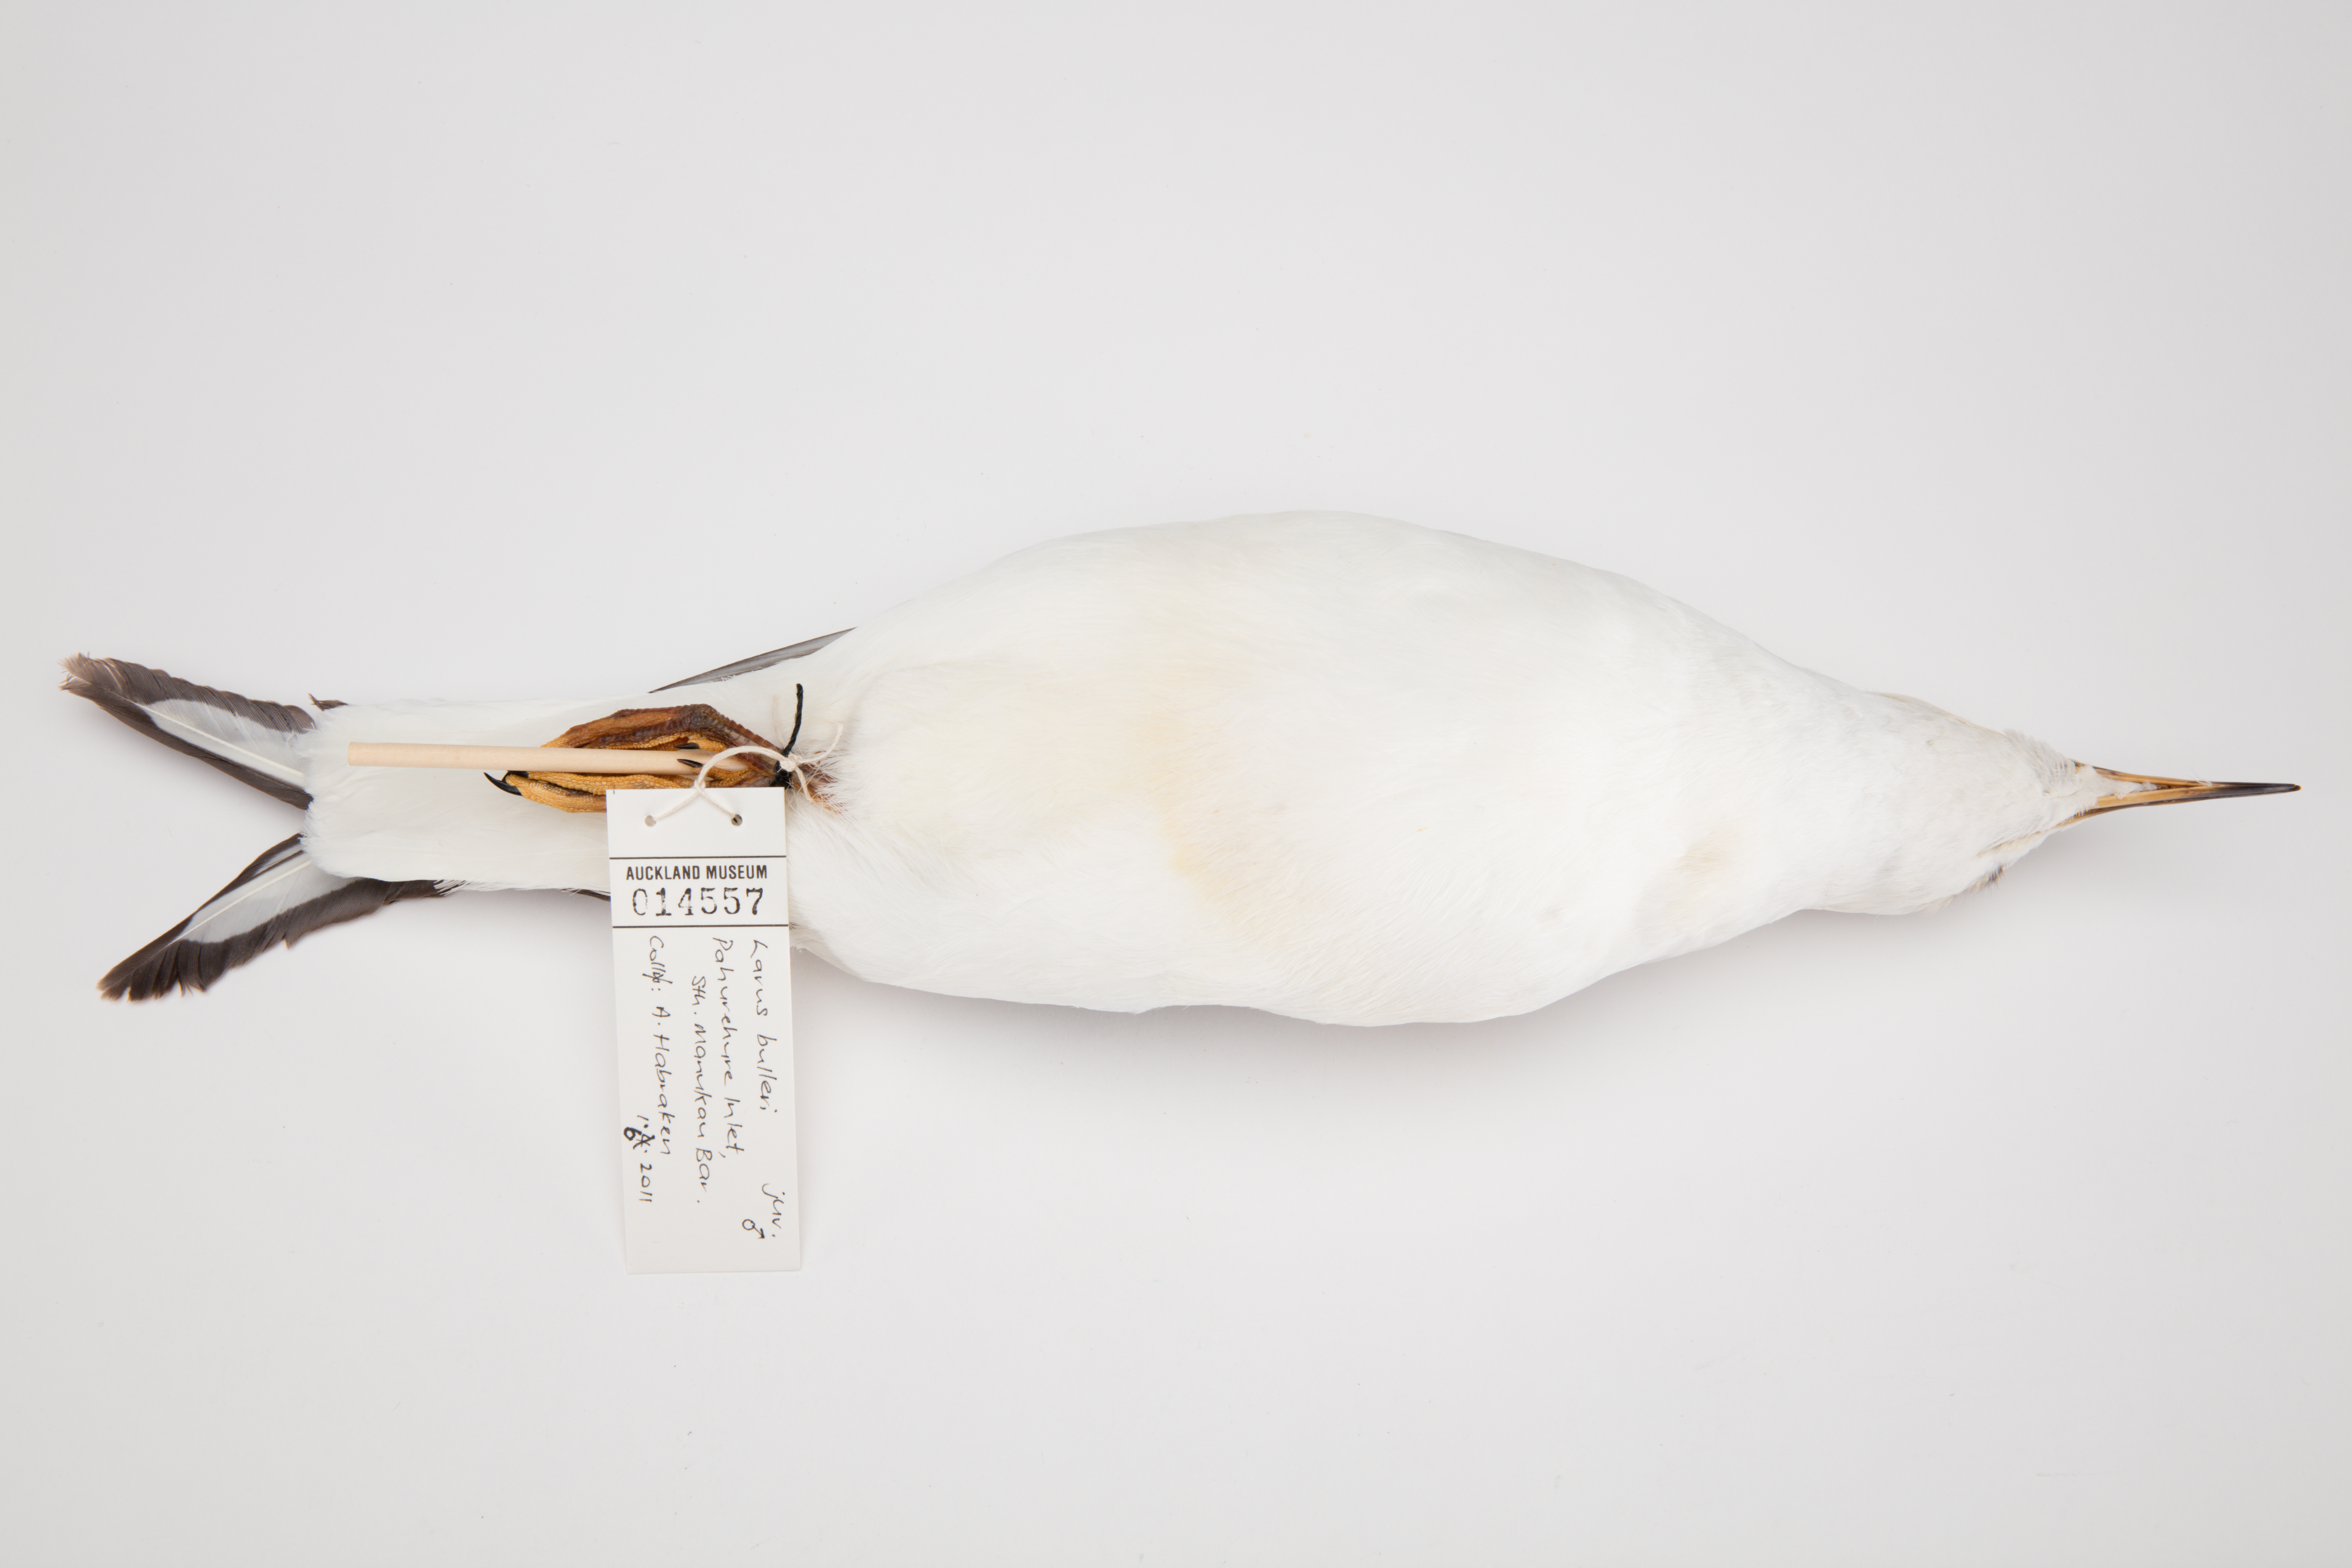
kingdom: Animalia
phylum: Chordata
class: Aves
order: Charadriiformes
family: Laridae
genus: Chroicocephalus
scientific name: Chroicocephalus bulleri
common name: Black-billed gull
